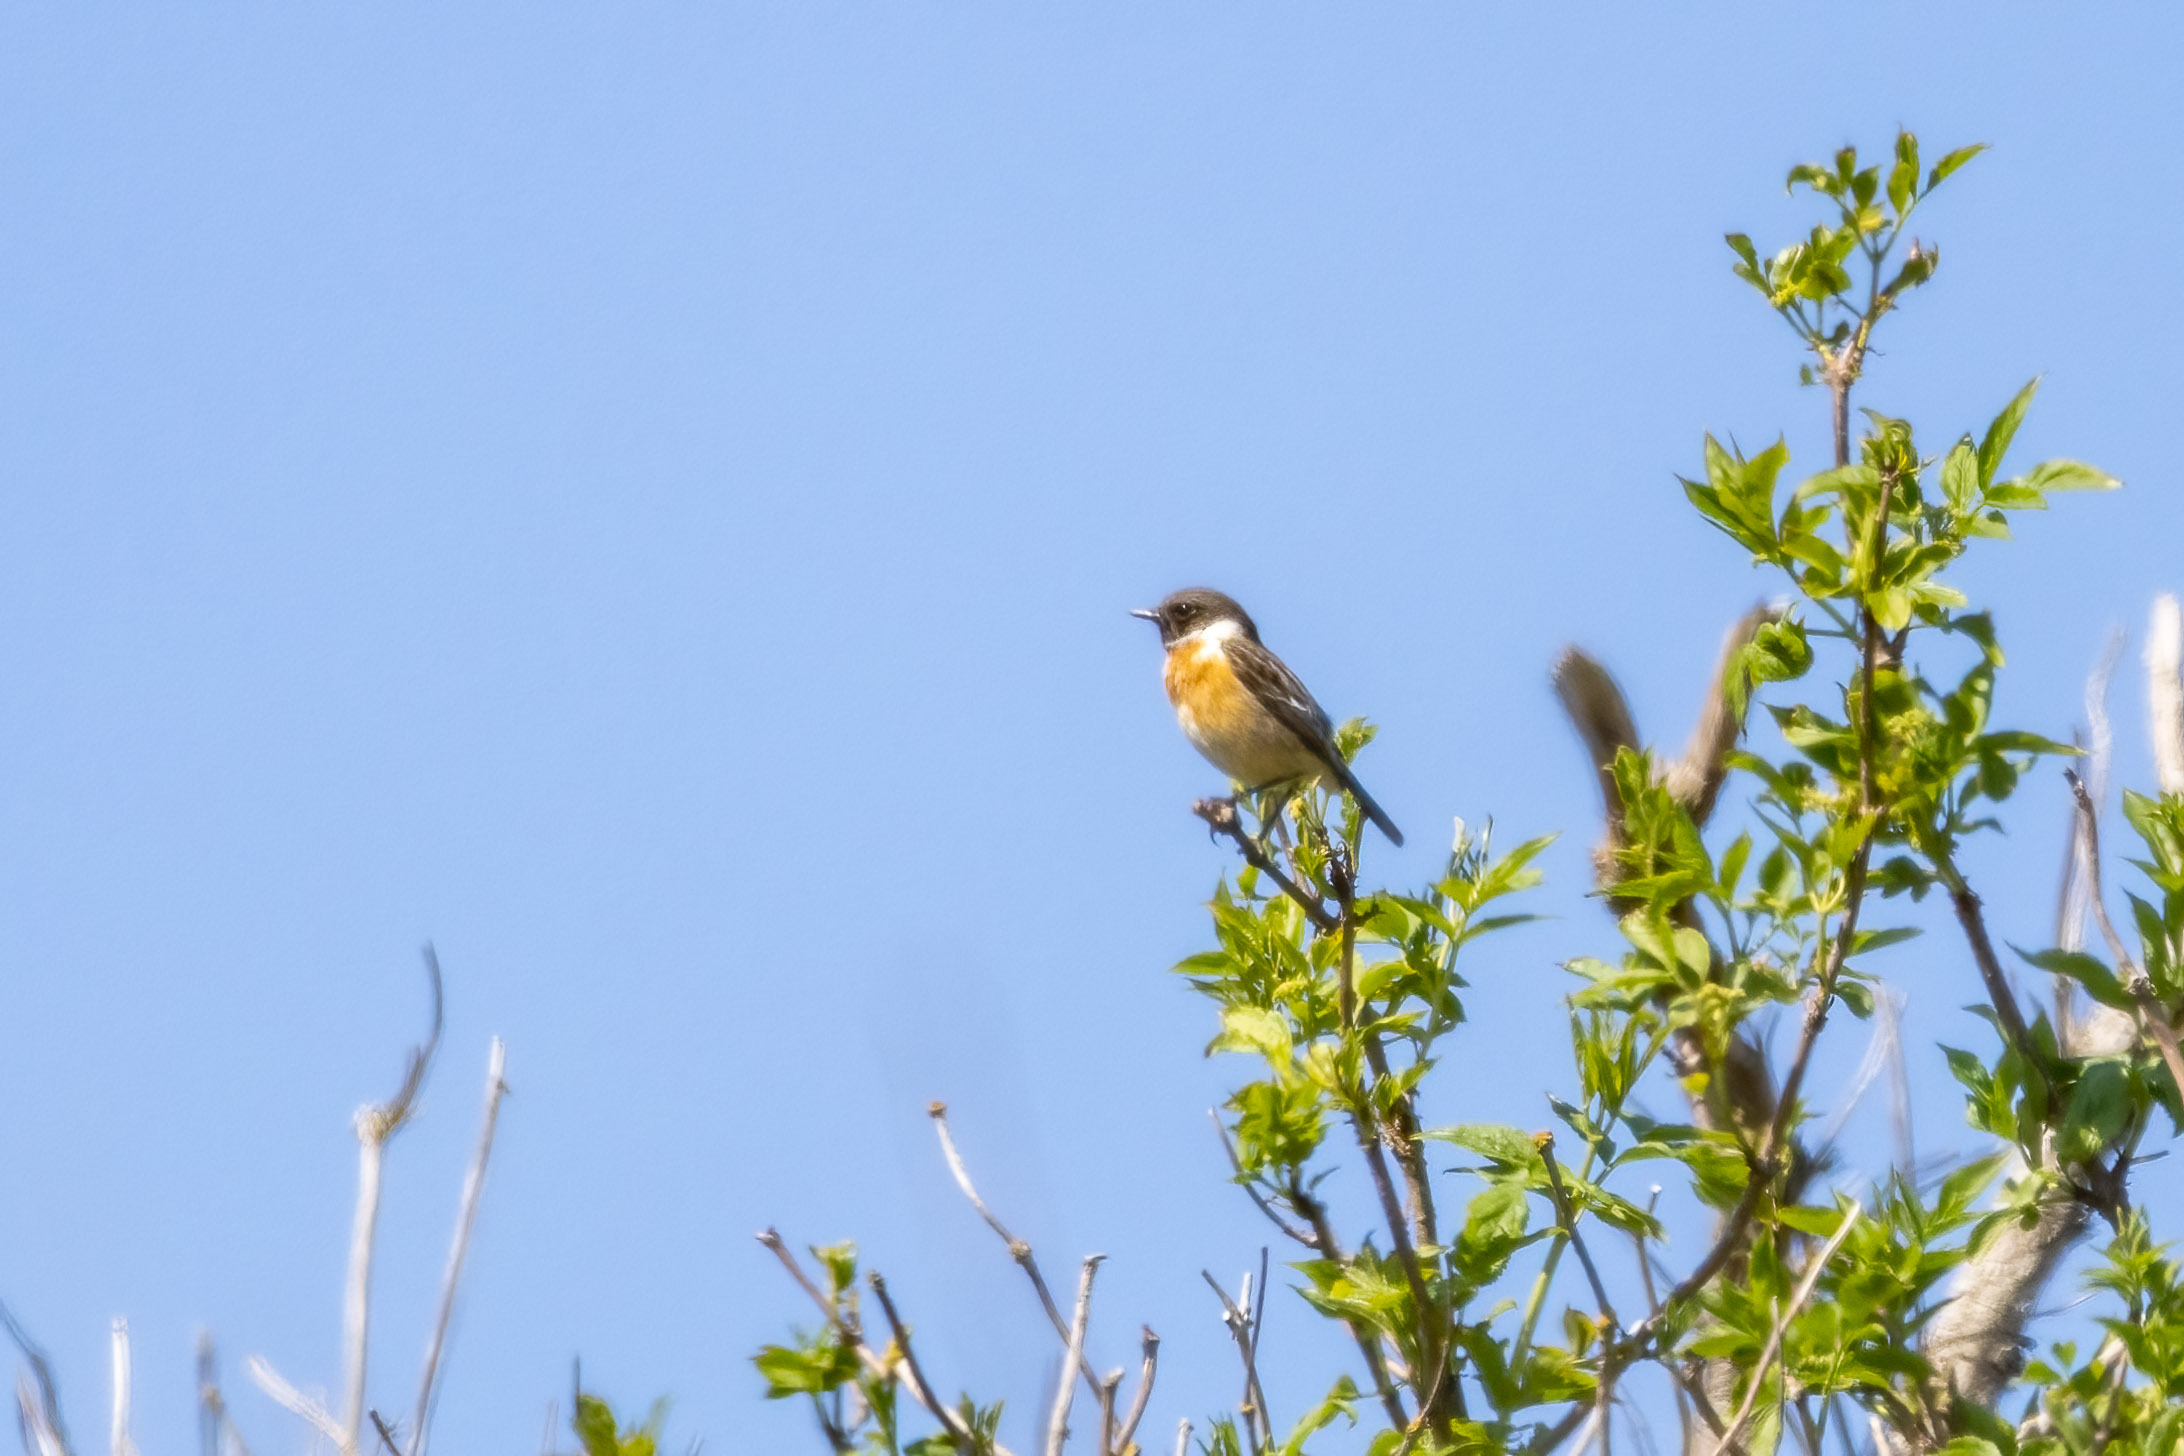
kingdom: Animalia
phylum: Chordata
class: Aves
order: Passeriformes
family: Muscicapidae
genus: Saxicola
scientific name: Saxicola rubicola
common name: Sortstrubet bynkefugl
